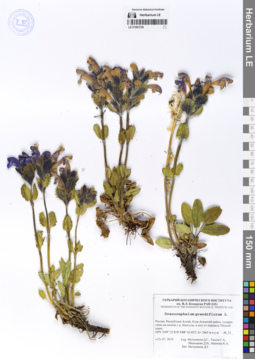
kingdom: Plantae
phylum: Tracheophyta
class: Magnoliopsida
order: Lamiales
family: Lamiaceae
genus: Dracocephalum
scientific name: Dracocephalum grandiflorum
